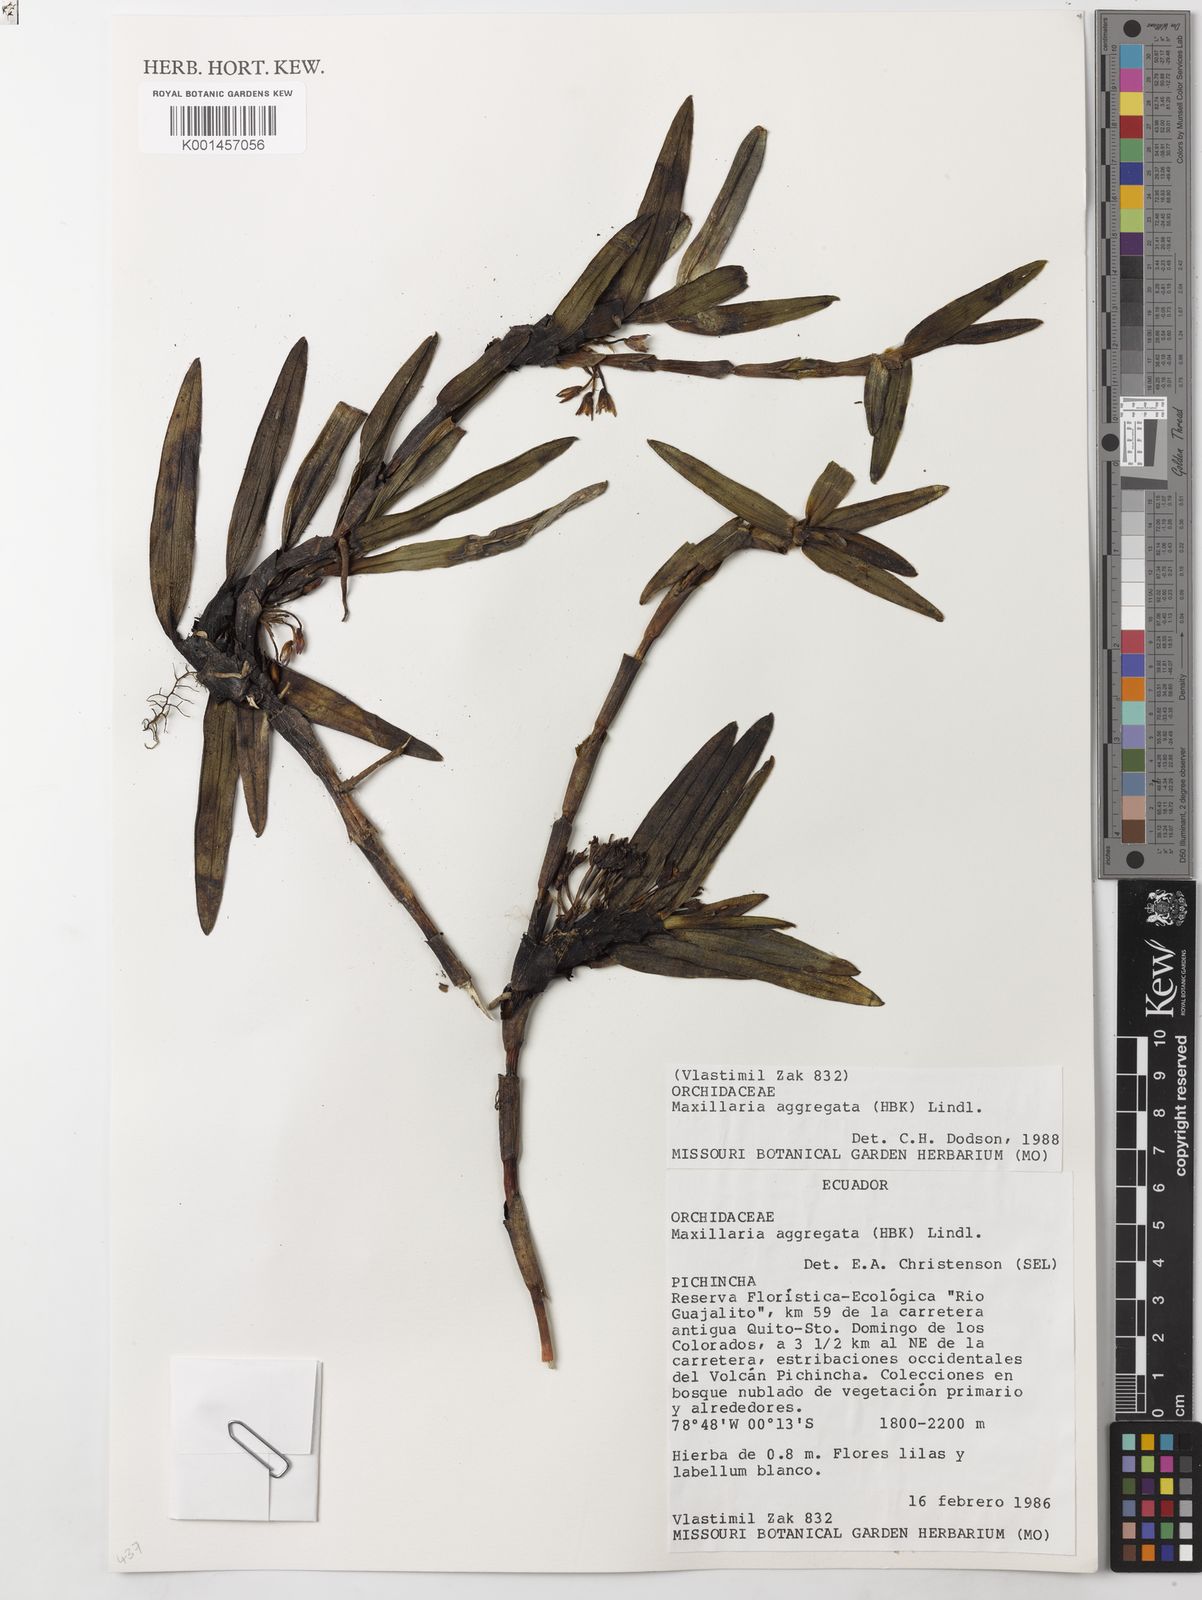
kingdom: Plantae
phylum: Tracheophyta
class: Liliopsida
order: Asparagales
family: Orchidaceae
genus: Maxillaria
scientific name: Maxillaria aggregata
